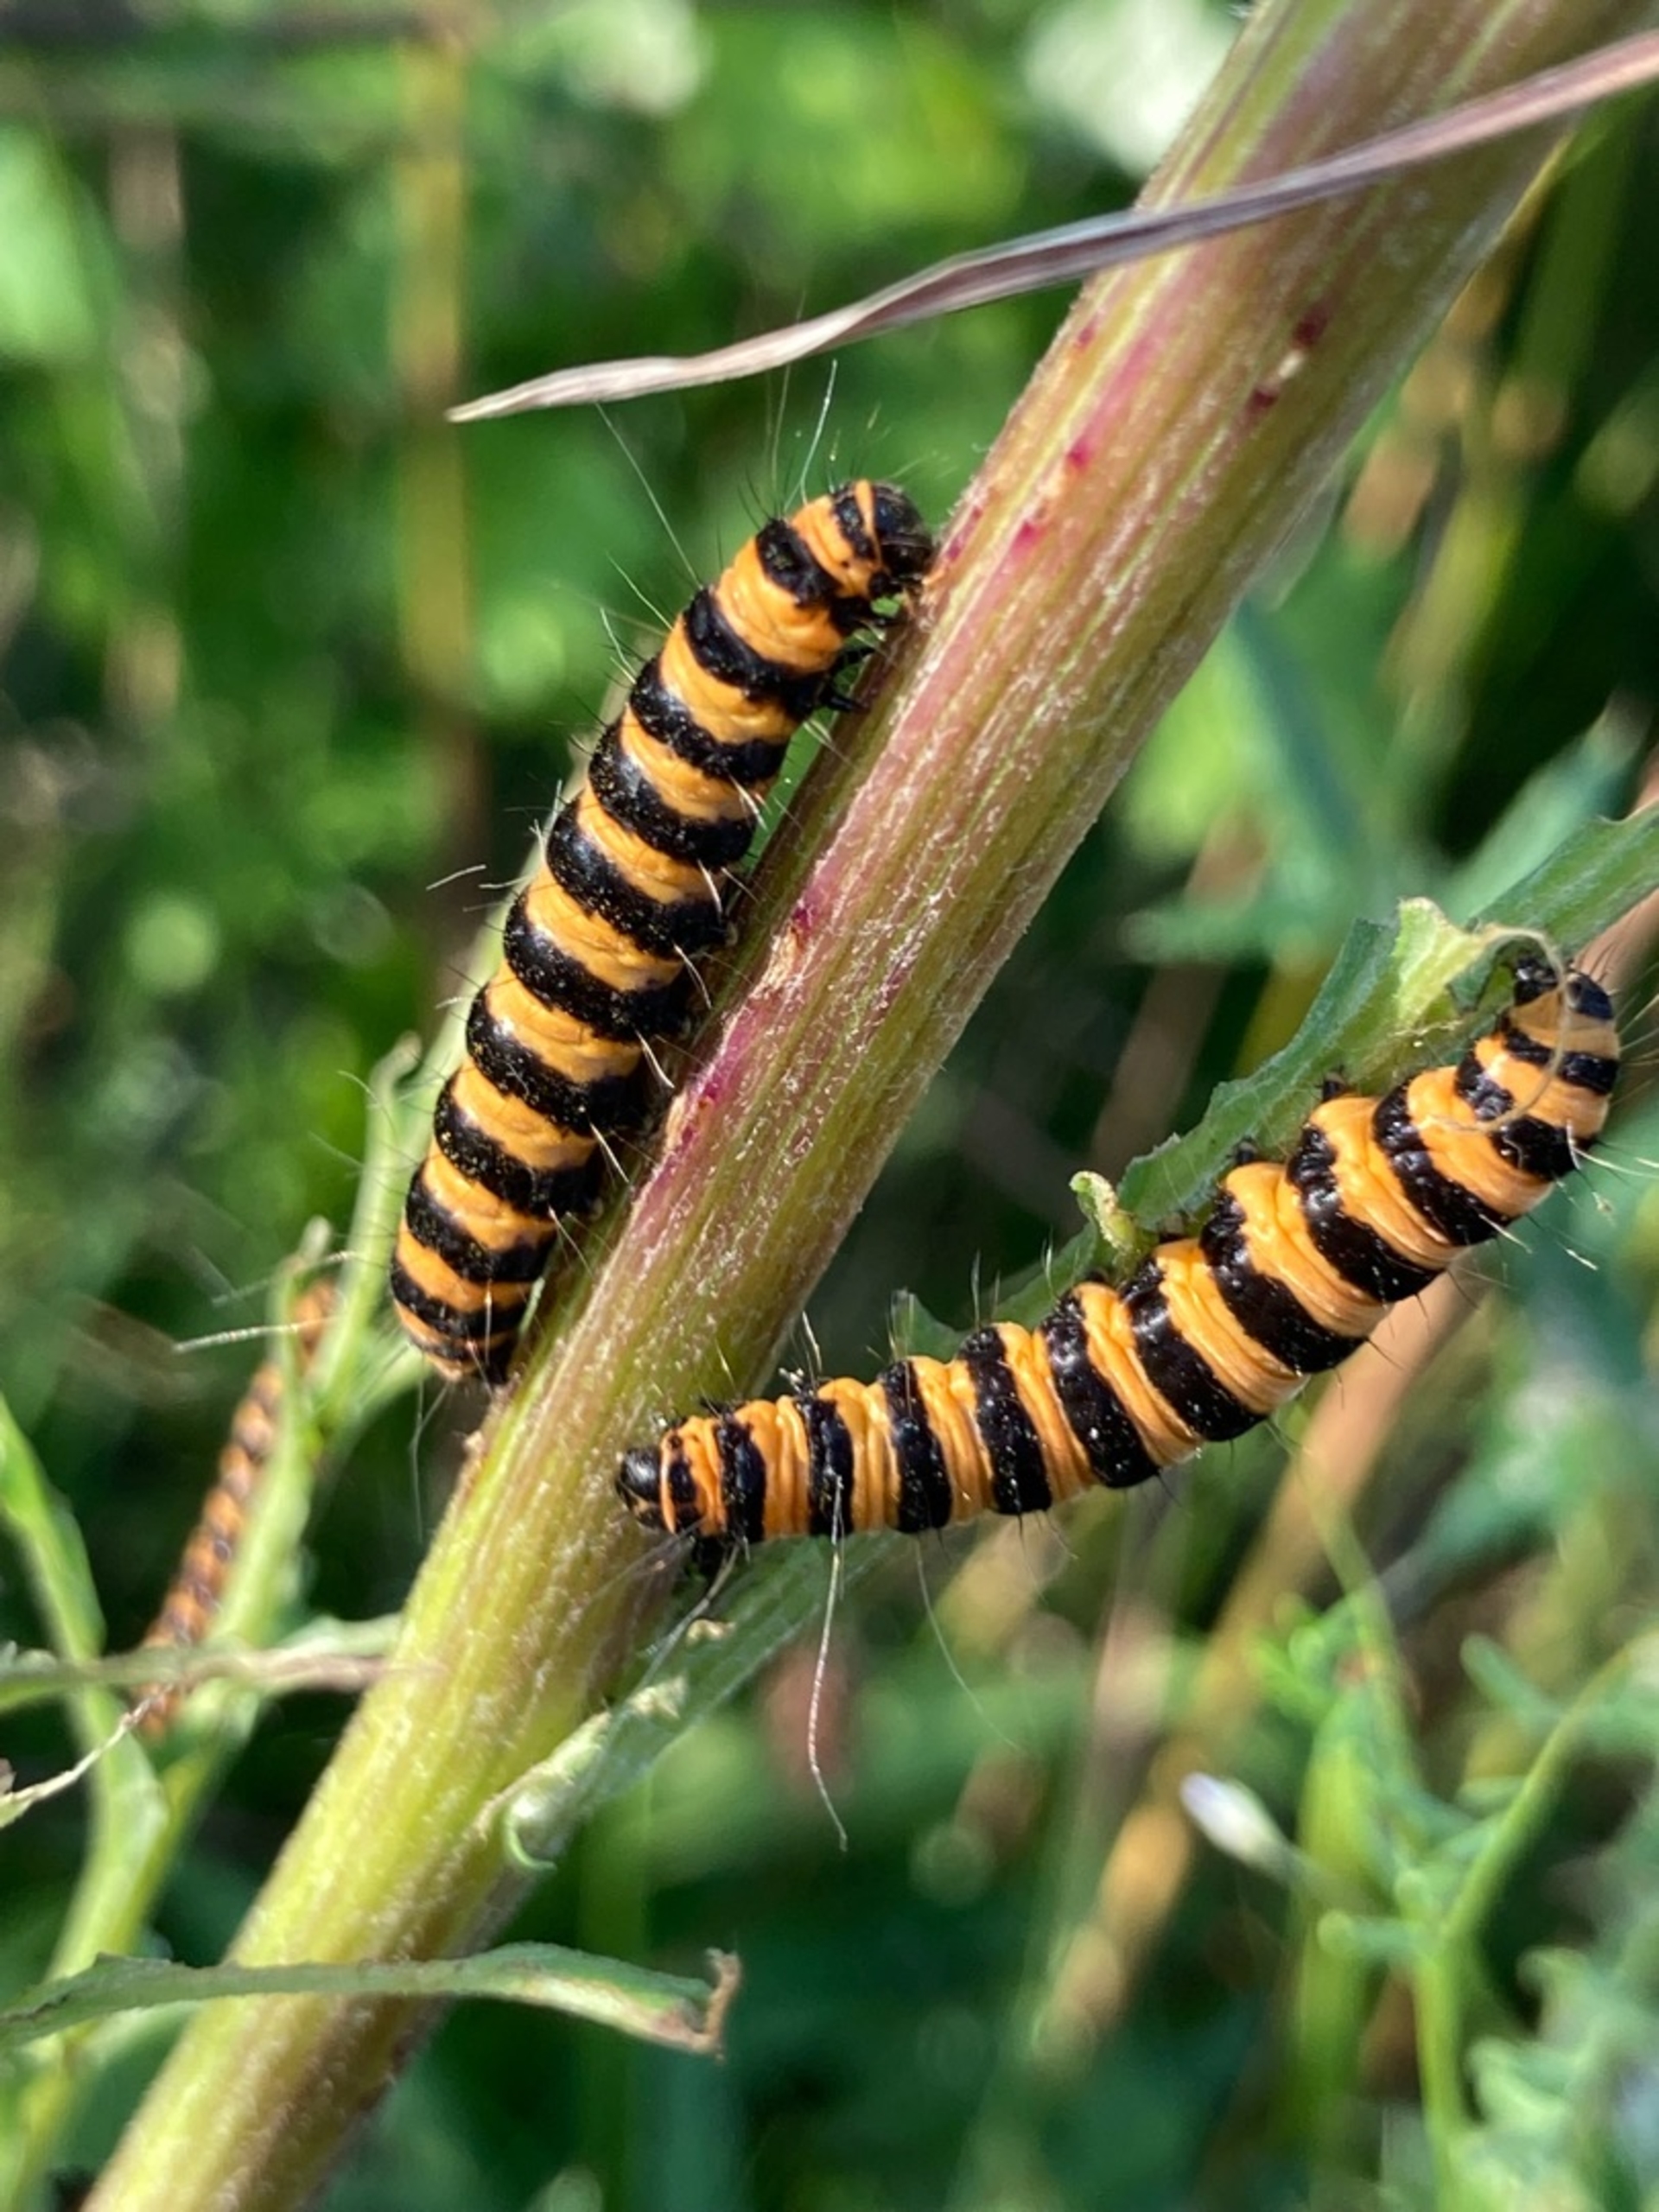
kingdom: Animalia
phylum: Arthropoda
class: Insecta
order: Lepidoptera
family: Erebidae
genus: Tyria
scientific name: Tyria jacobaeae
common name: Blodplet
